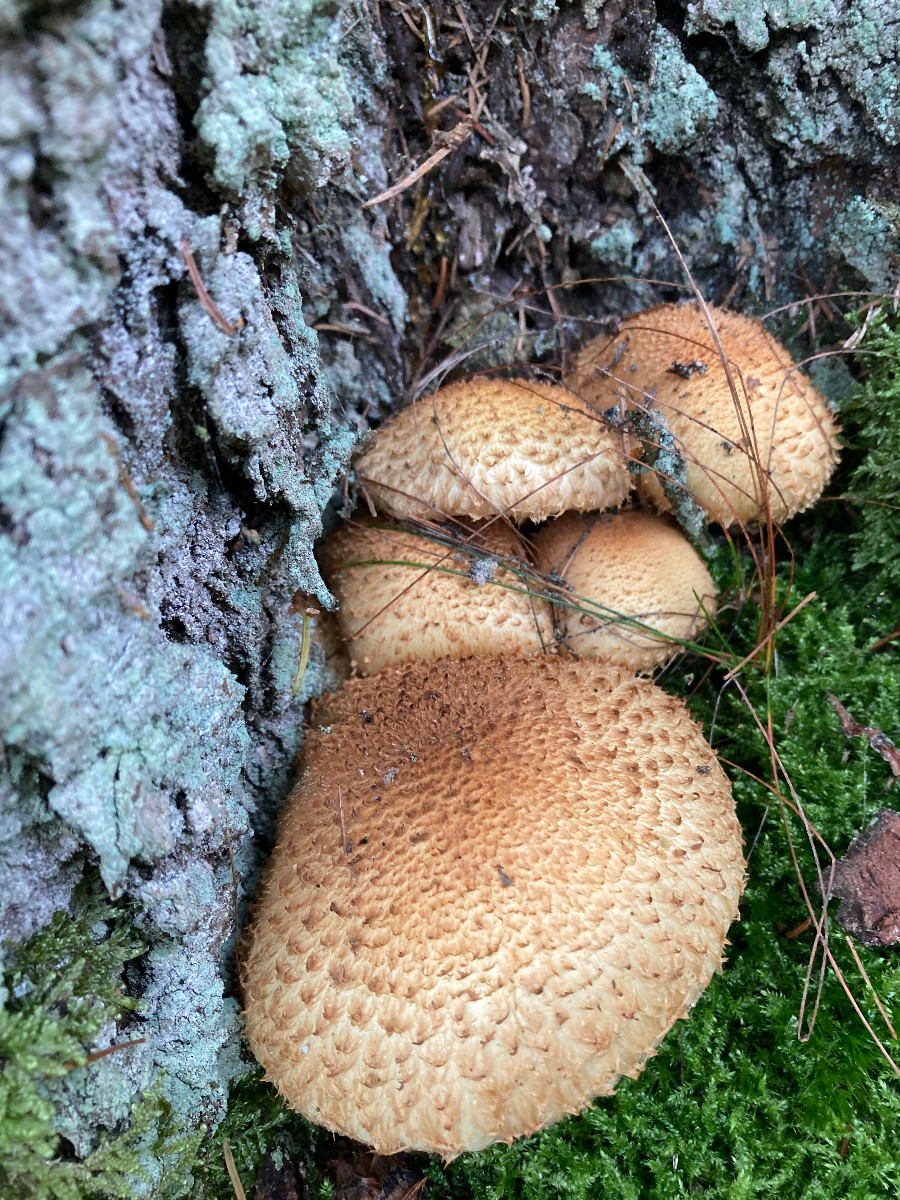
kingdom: Fungi
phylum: Basidiomycota
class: Agaricomycetes
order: Agaricales
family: Strophariaceae
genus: Pholiota
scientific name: Pholiota squarrosa
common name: krumskællet skælhat
